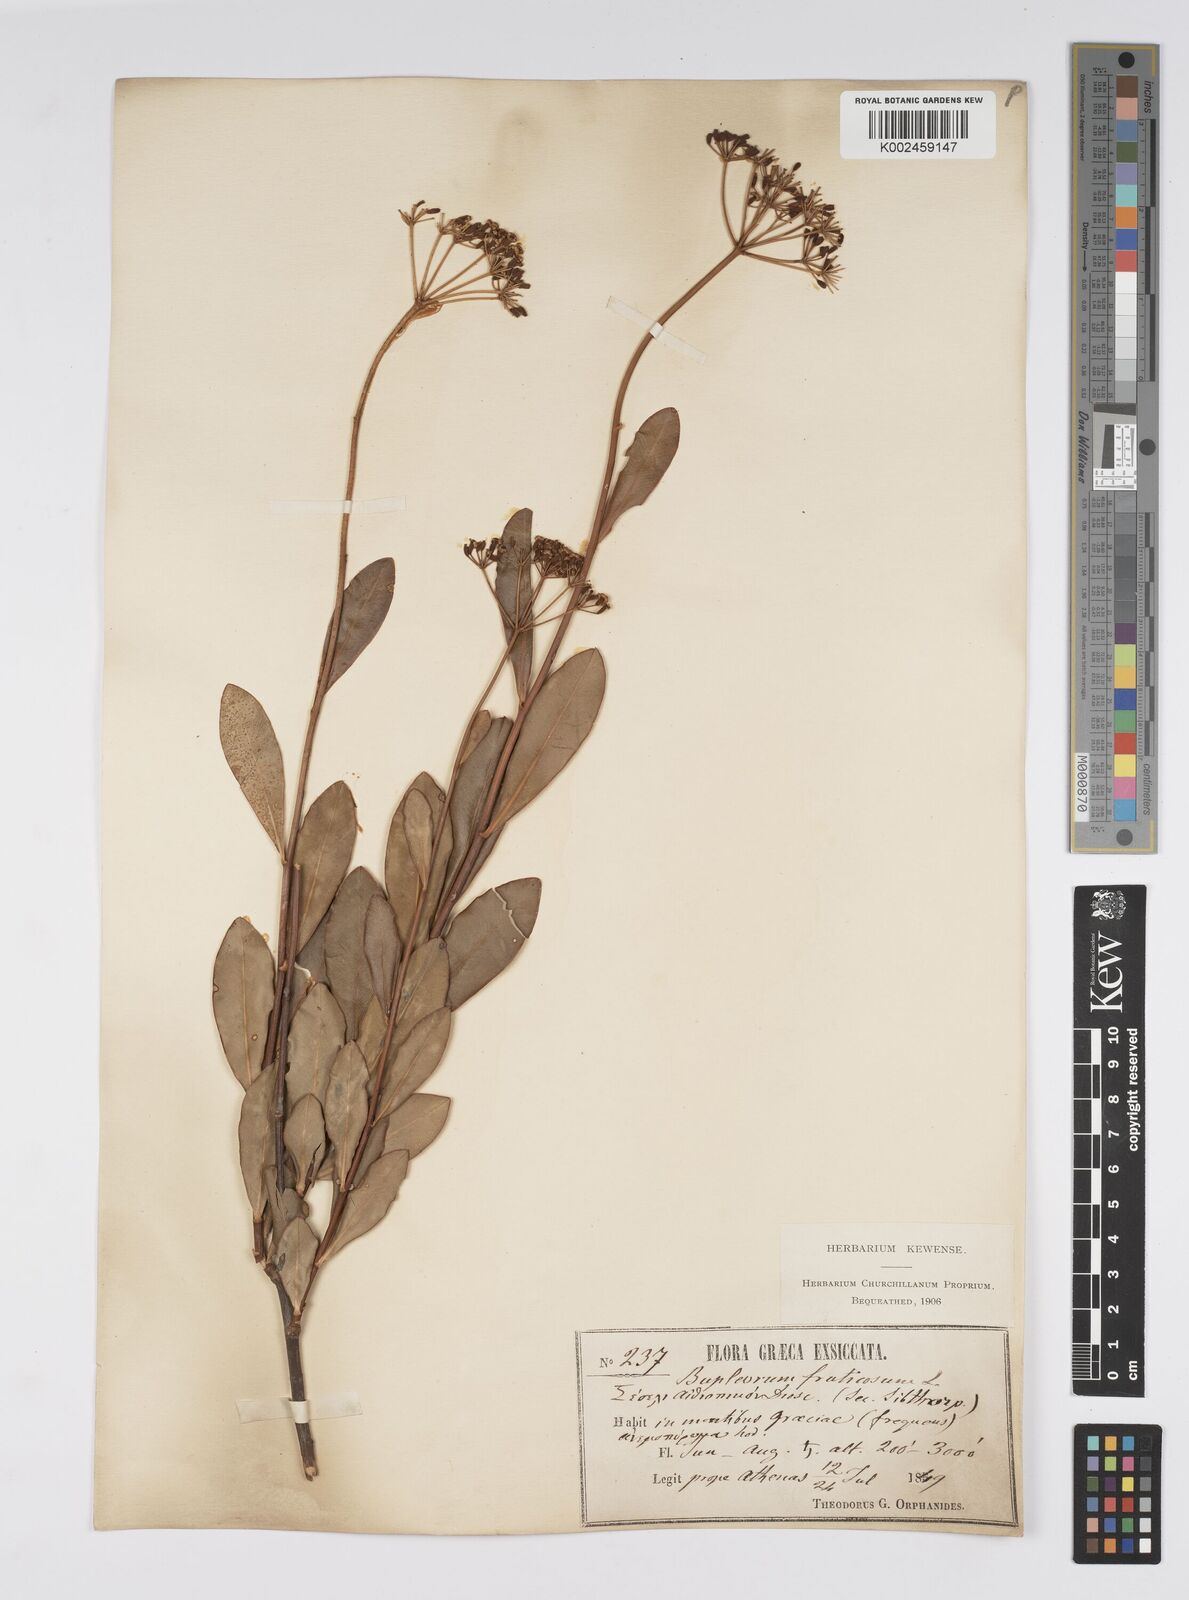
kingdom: Plantae
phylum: Tracheophyta
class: Magnoliopsida
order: Apiales
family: Apiaceae
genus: Bupleurum
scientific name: Bupleurum fruticosum
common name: Shrubby hare's-ear
